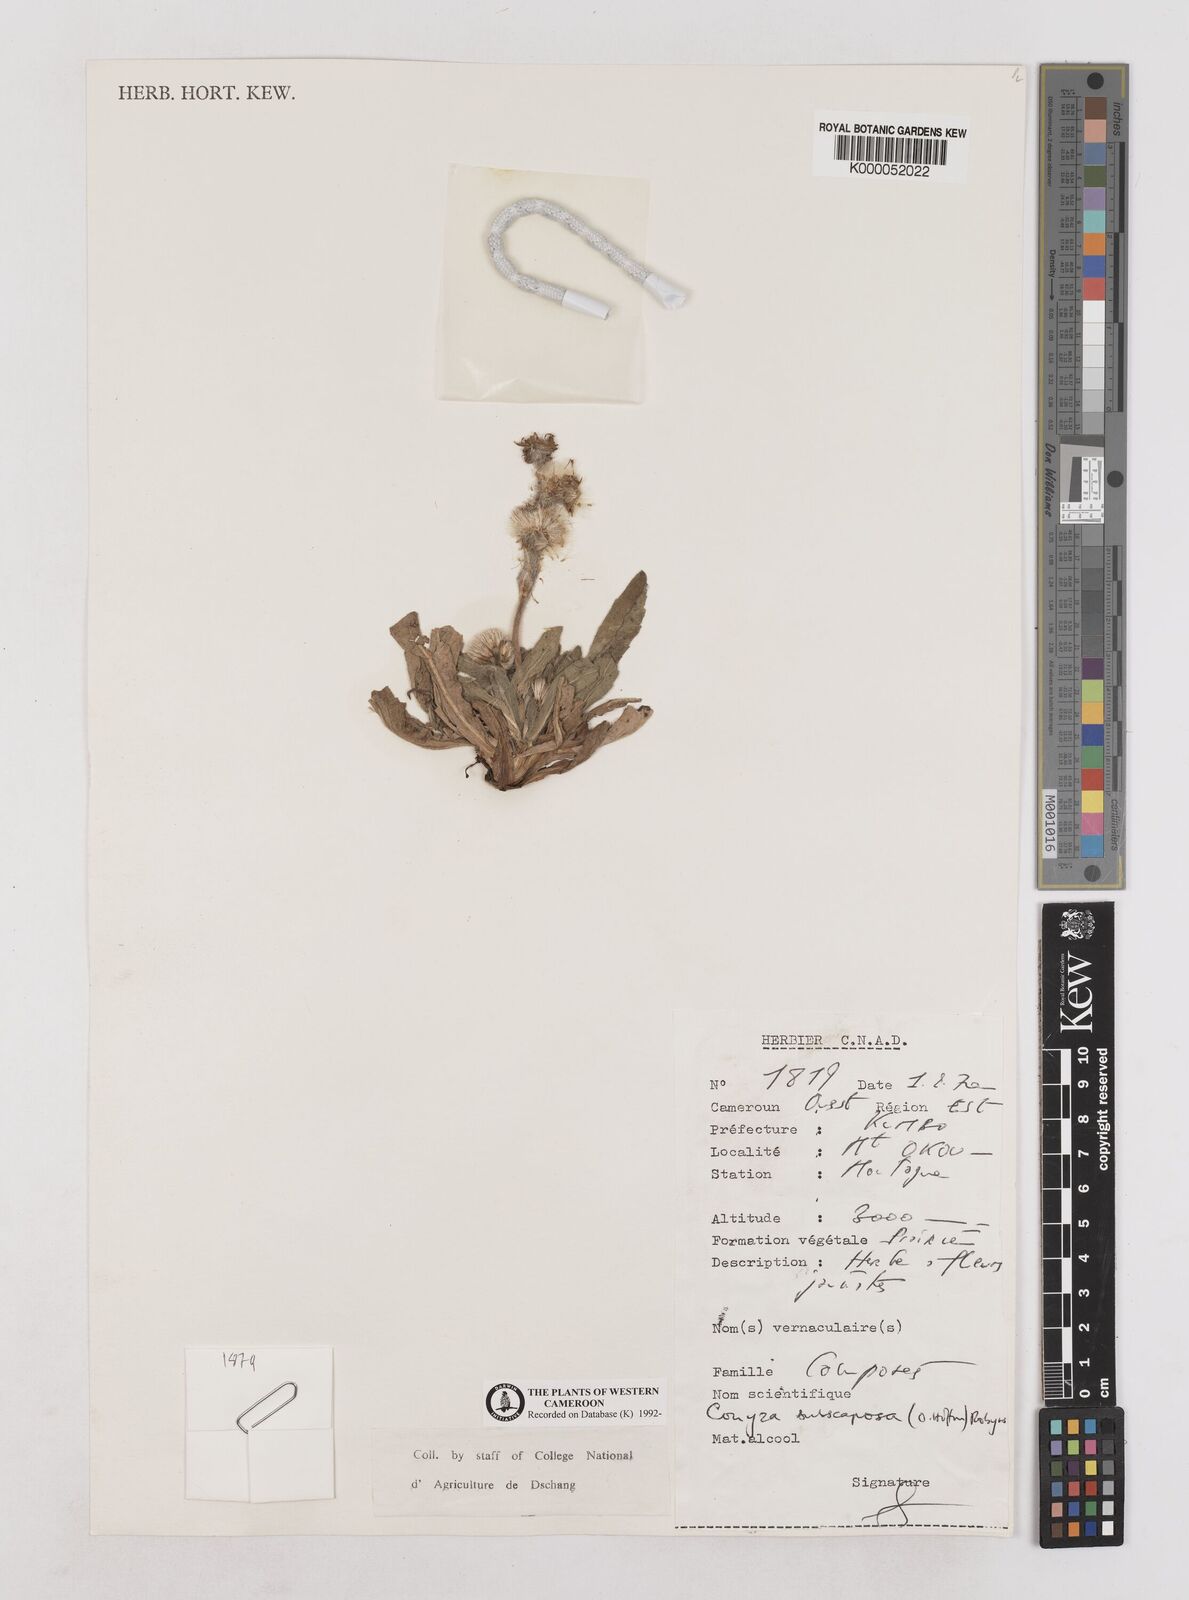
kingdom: Plantae
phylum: Tracheophyta
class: Magnoliopsida
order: Asterales
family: Asteraceae
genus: Eschenbachia
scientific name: Eschenbachia subscaposa
